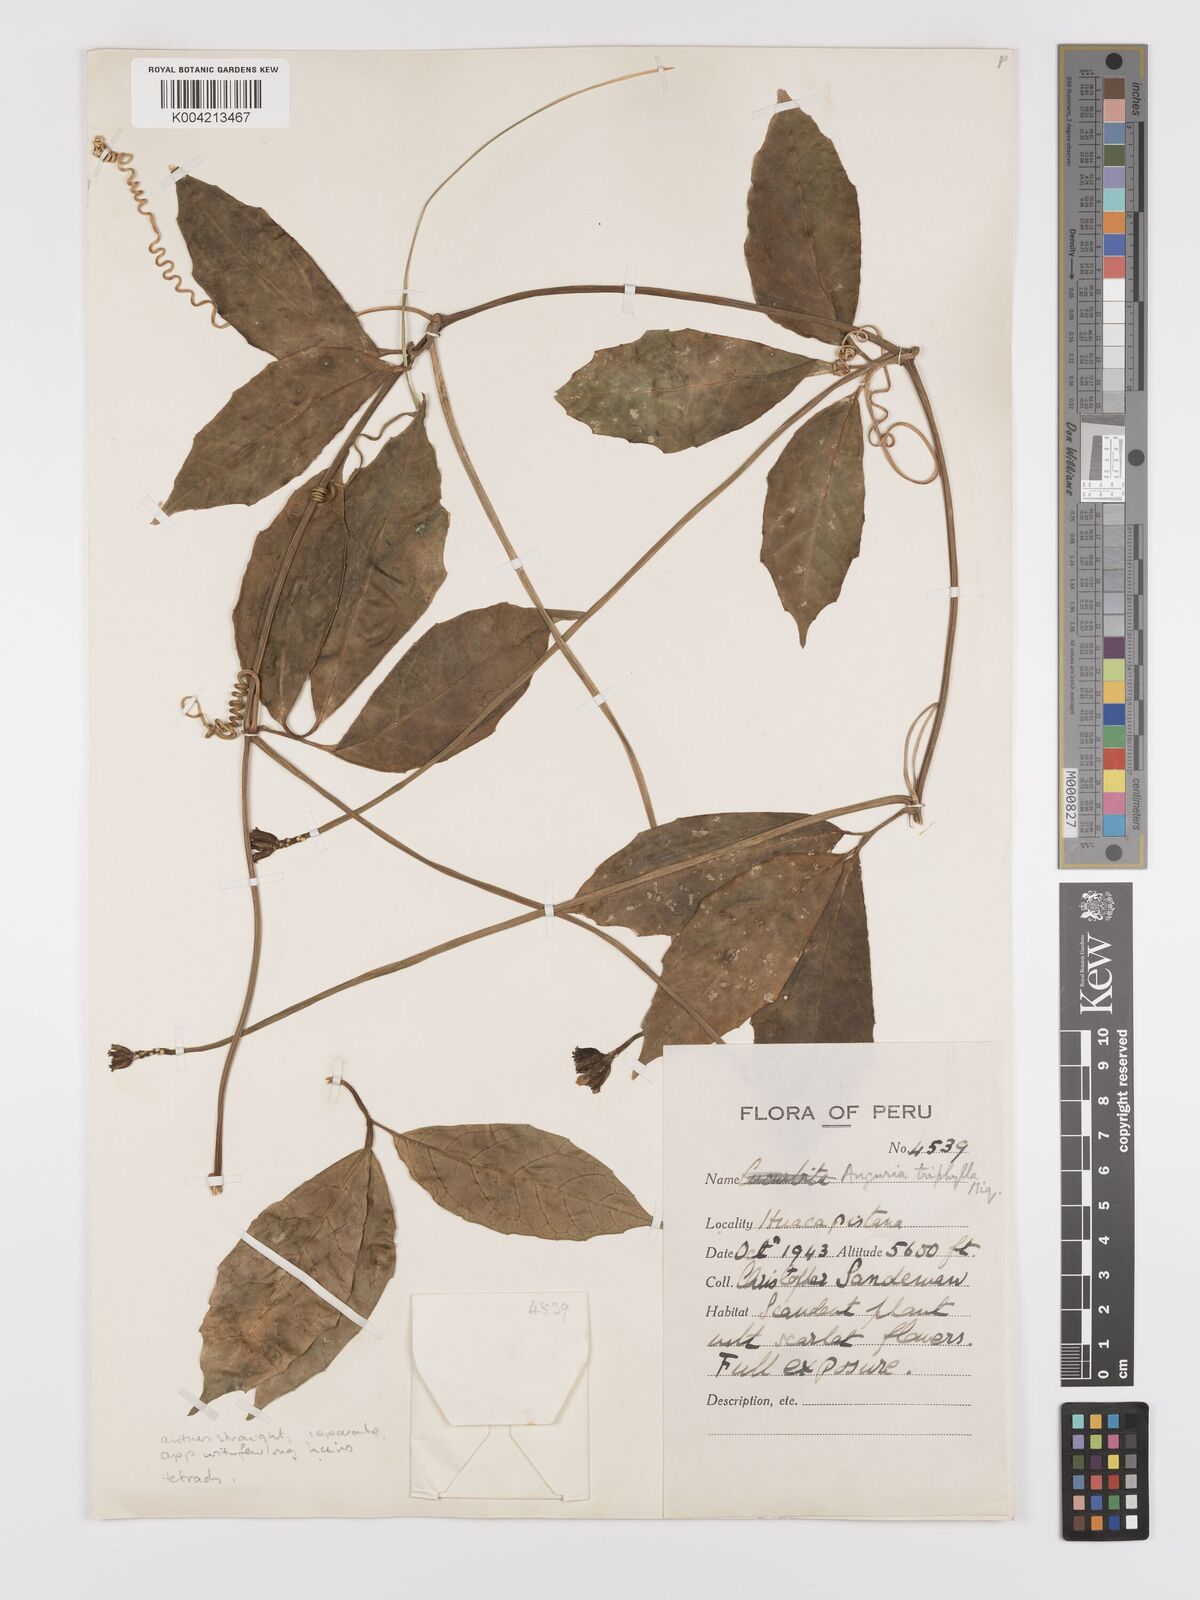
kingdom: Plantae
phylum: Tracheophyta
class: Magnoliopsida
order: Cucurbitales
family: Cucurbitaceae
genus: Psiguria
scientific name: Psiguria triphylla
